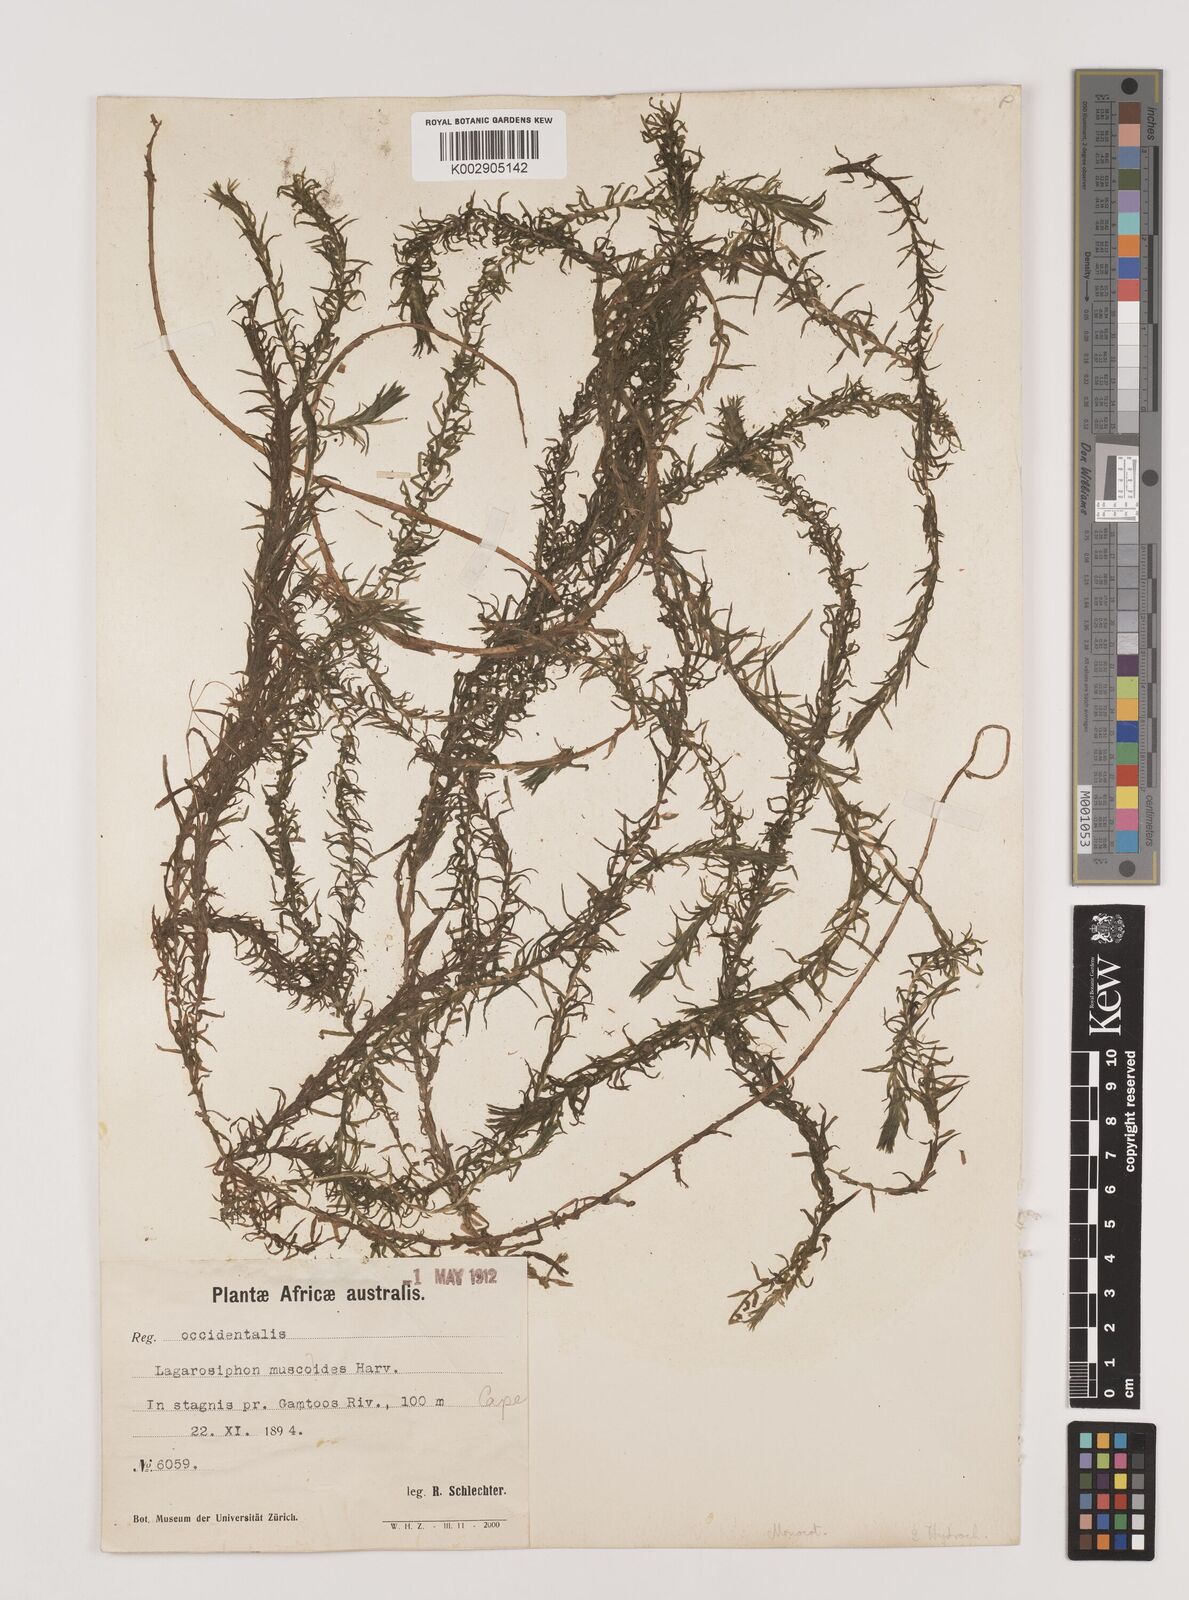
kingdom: Plantae
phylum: Tracheophyta
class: Liliopsida
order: Alismatales
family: Hydrocharitaceae
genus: Lagarosiphon
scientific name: Lagarosiphon muscoides
